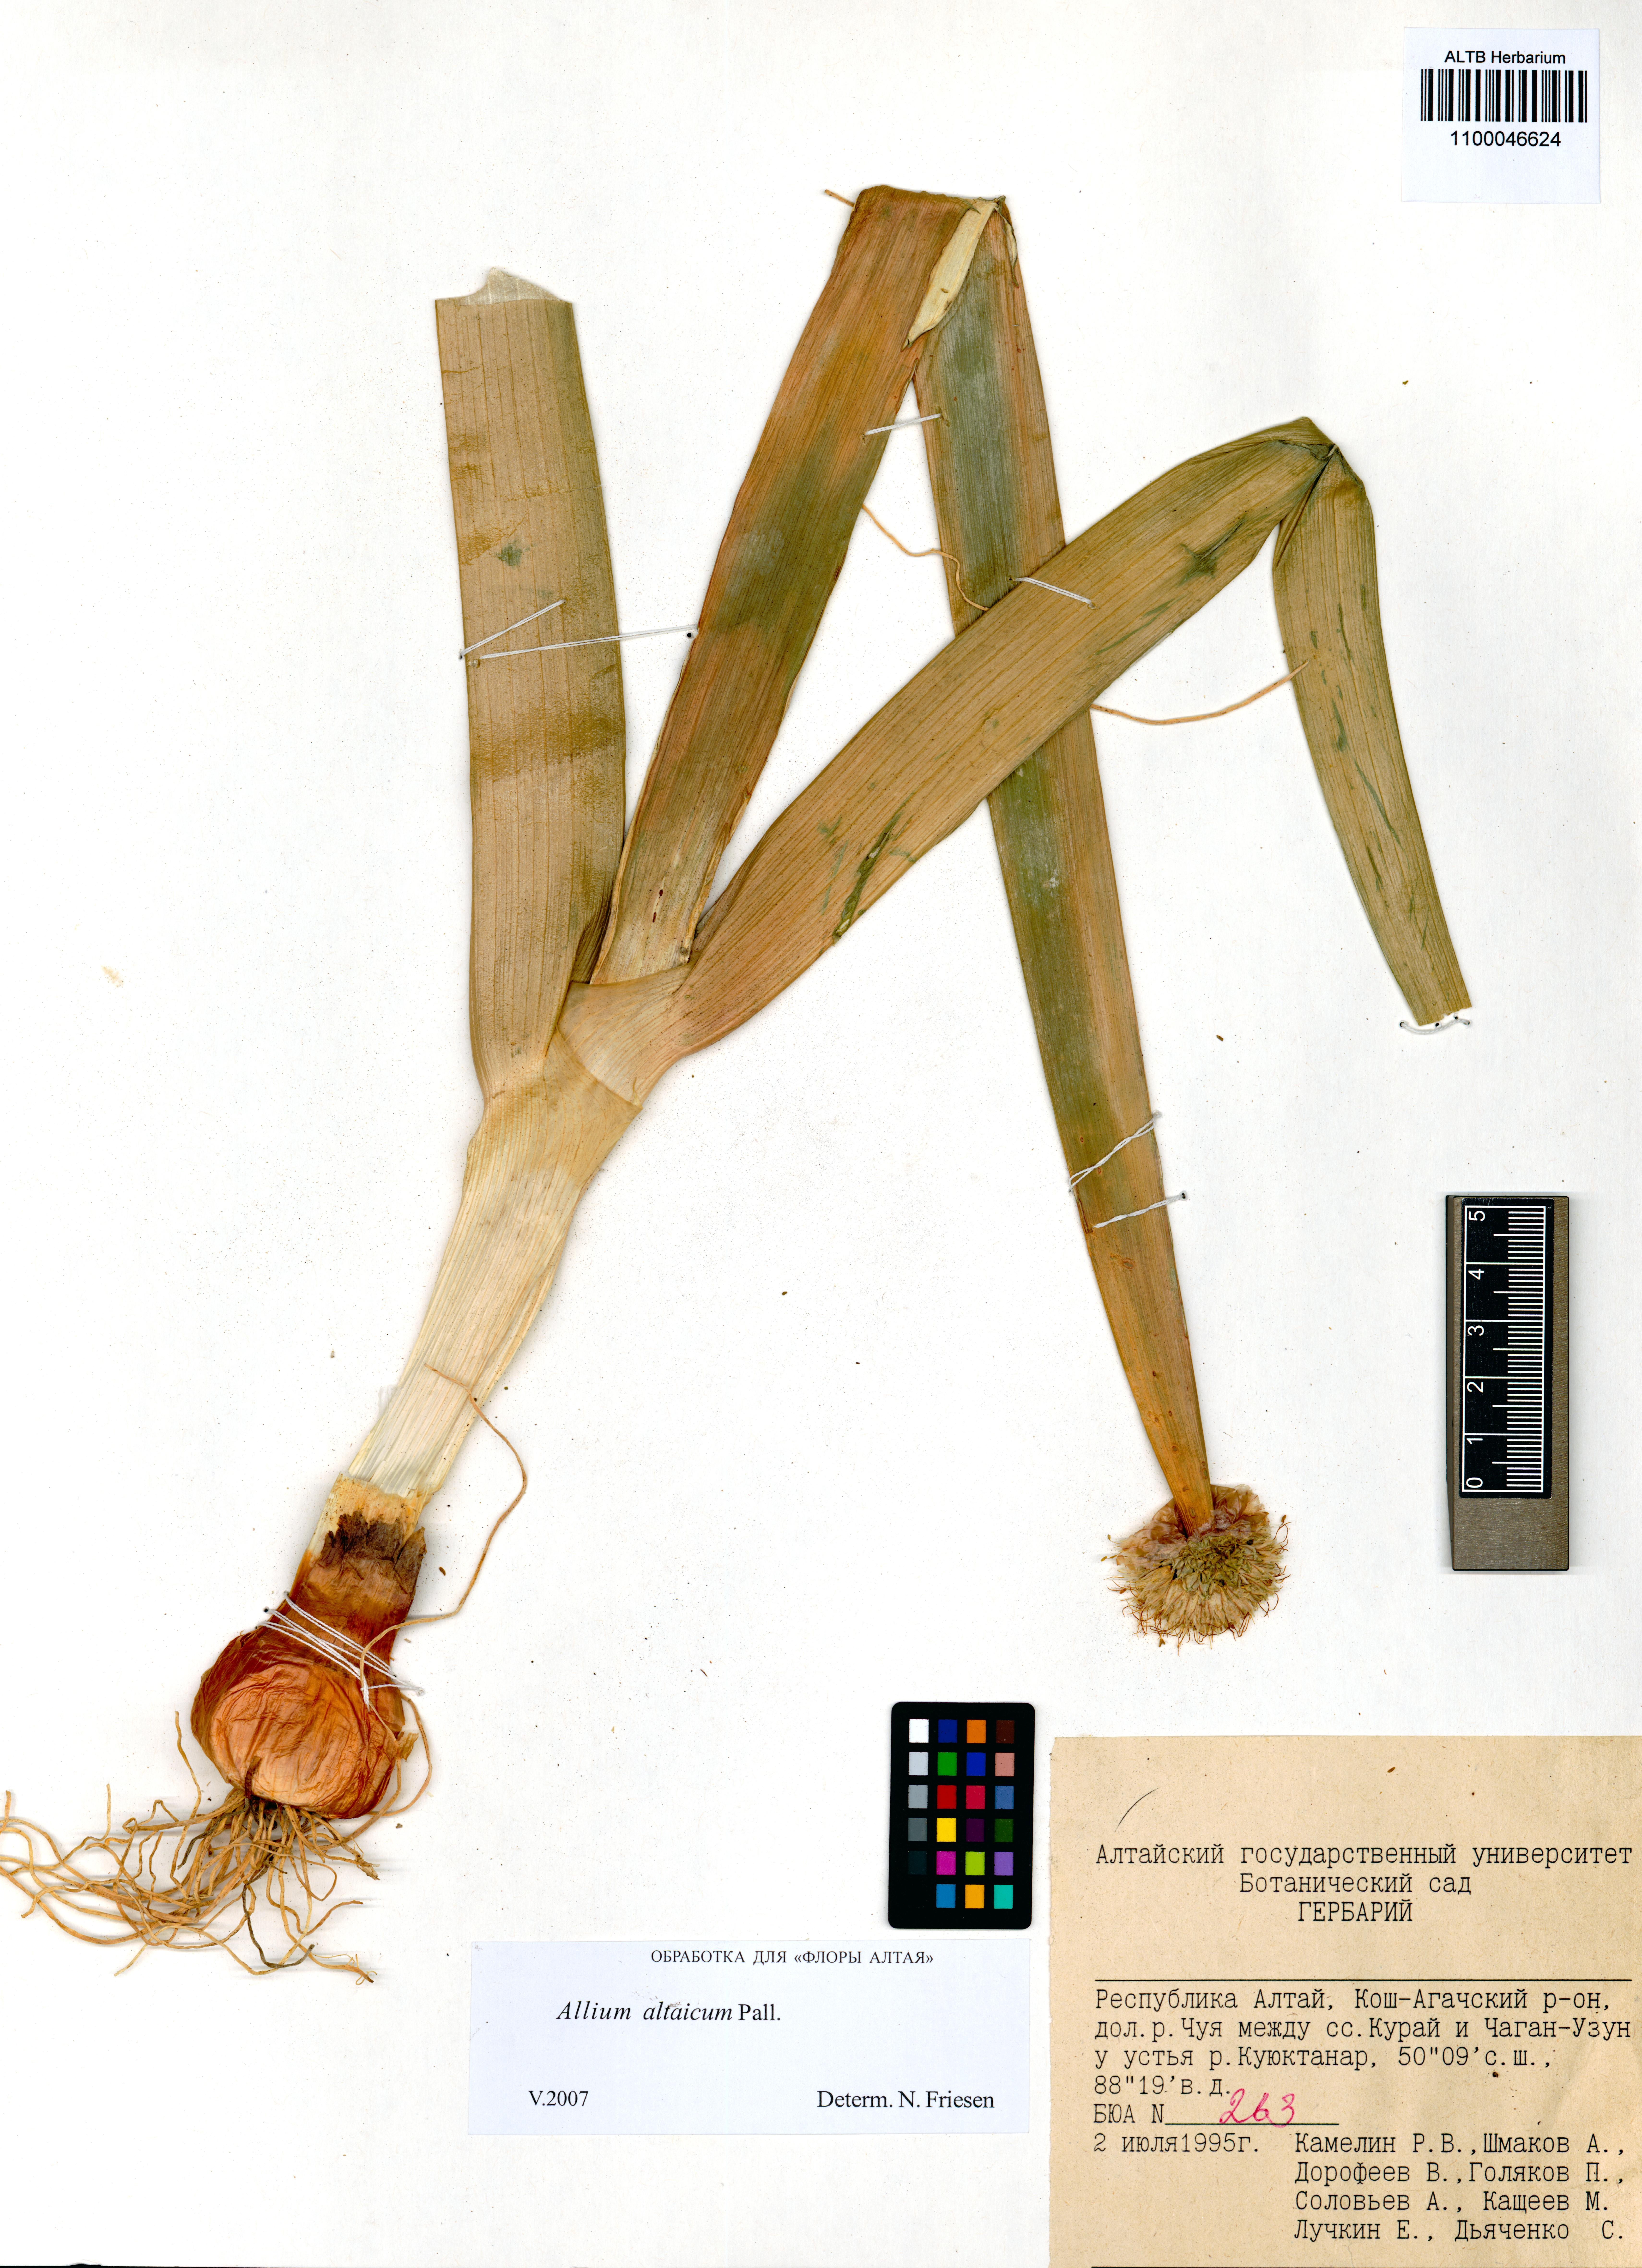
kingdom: Plantae
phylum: Tracheophyta
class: Liliopsida
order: Asparagales
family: Amaryllidaceae
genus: Allium
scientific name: Allium altaicum
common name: Altai onion
